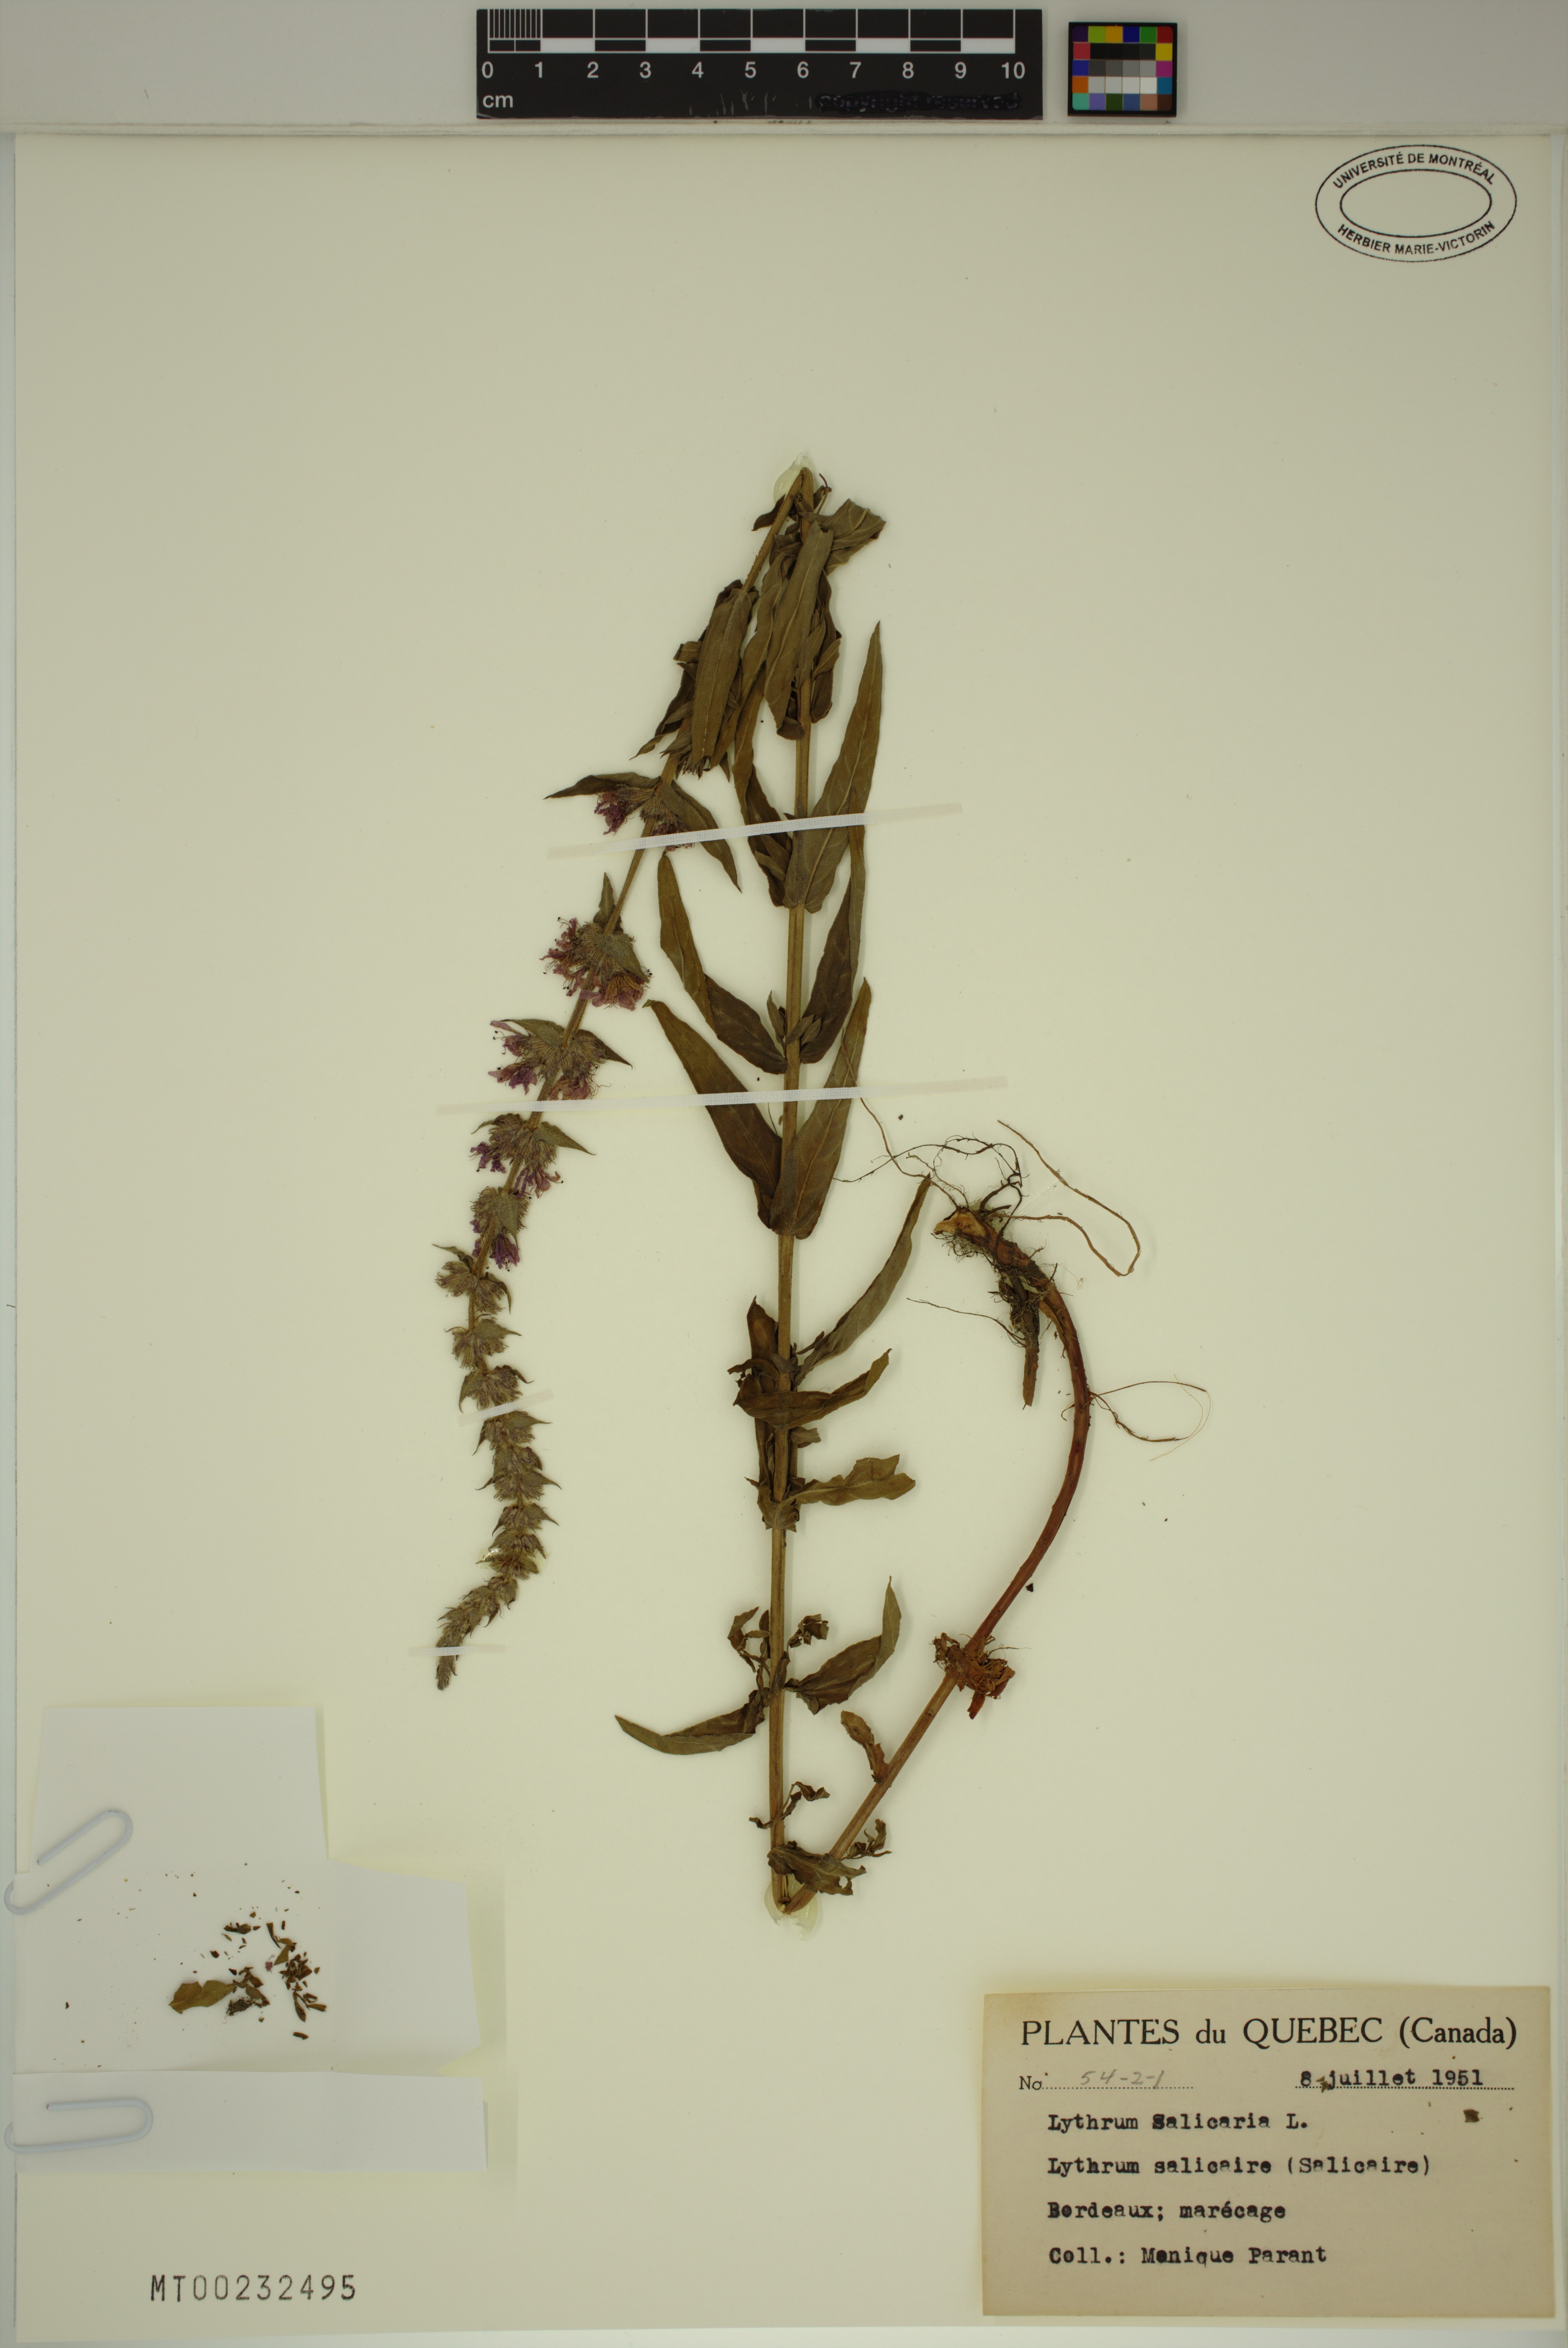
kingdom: Plantae
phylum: Tracheophyta
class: Magnoliopsida
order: Myrtales
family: Lythraceae
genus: Lythrum
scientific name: Lythrum salicaria
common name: Purple loosestrife
